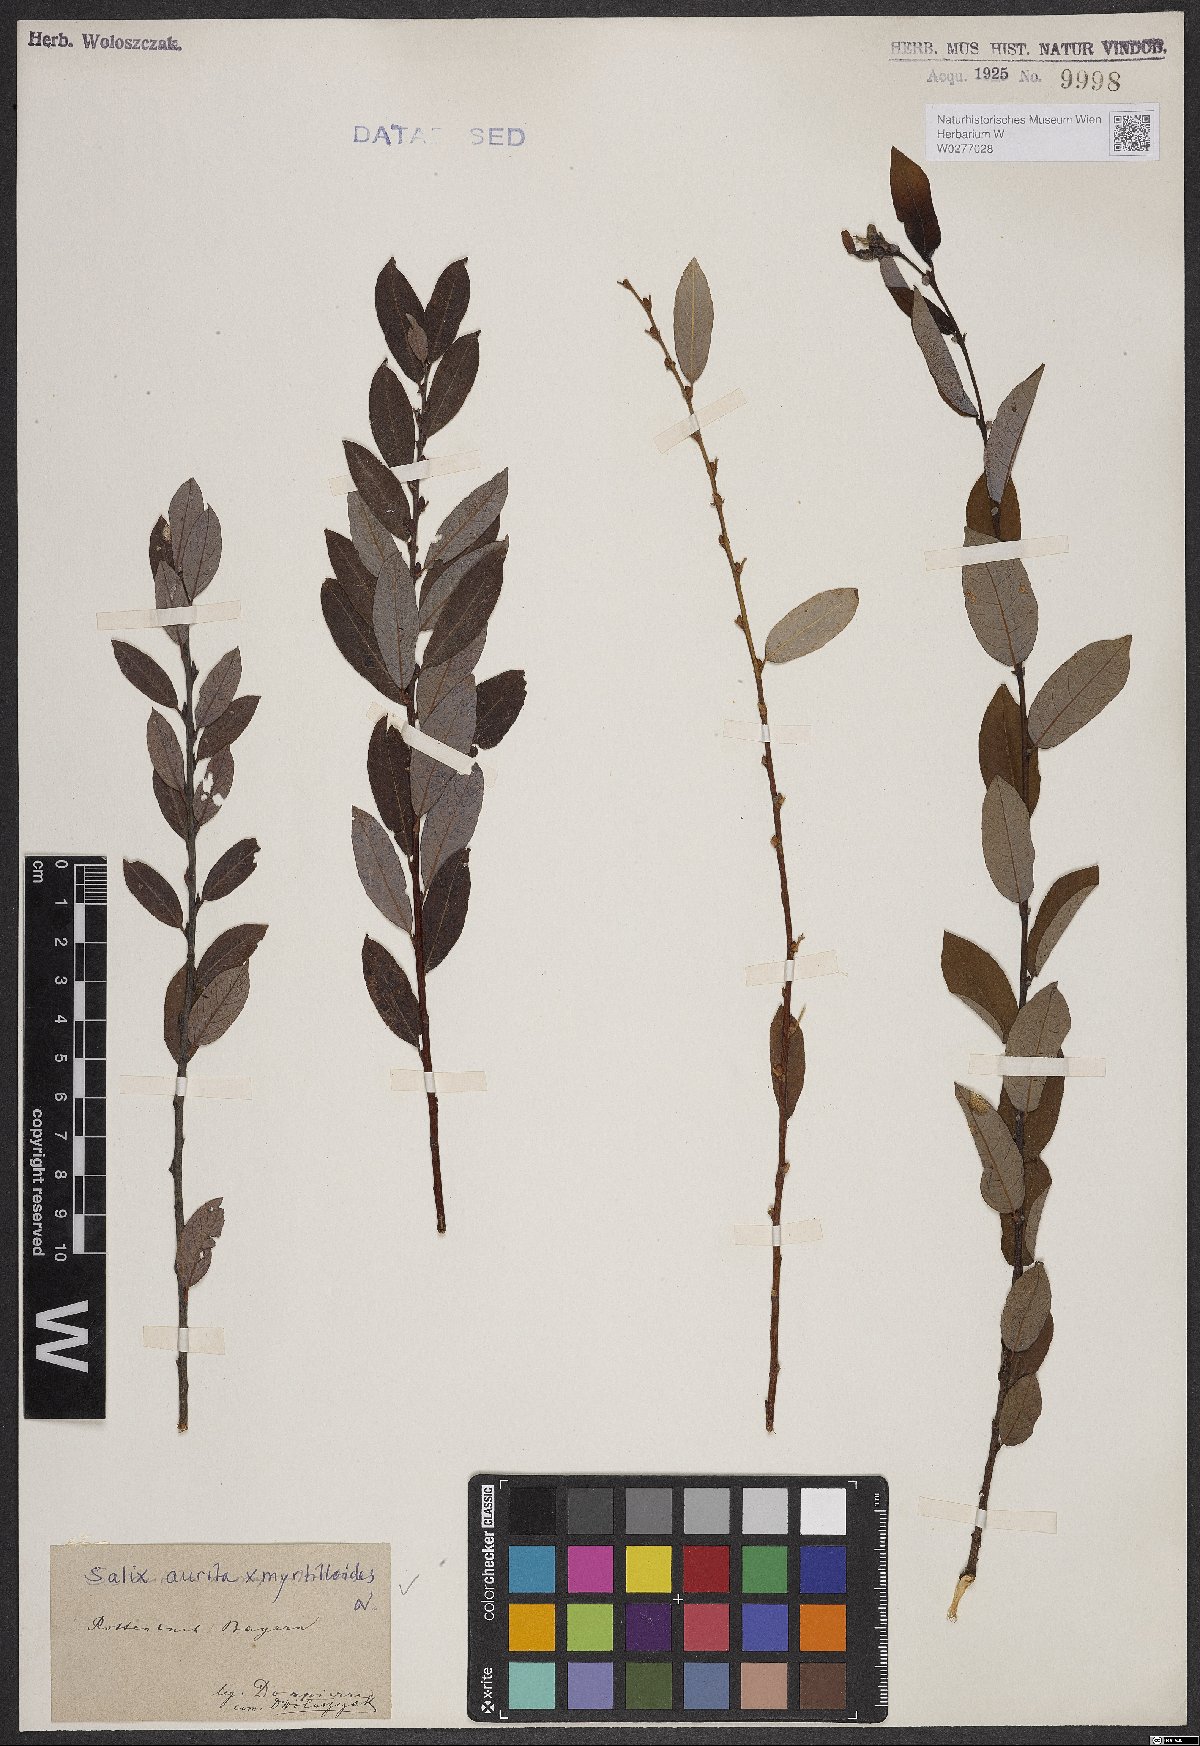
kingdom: Plantae
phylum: Tracheophyta
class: Magnoliopsida
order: Malpighiales
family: Salicaceae
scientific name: Salicaceae
